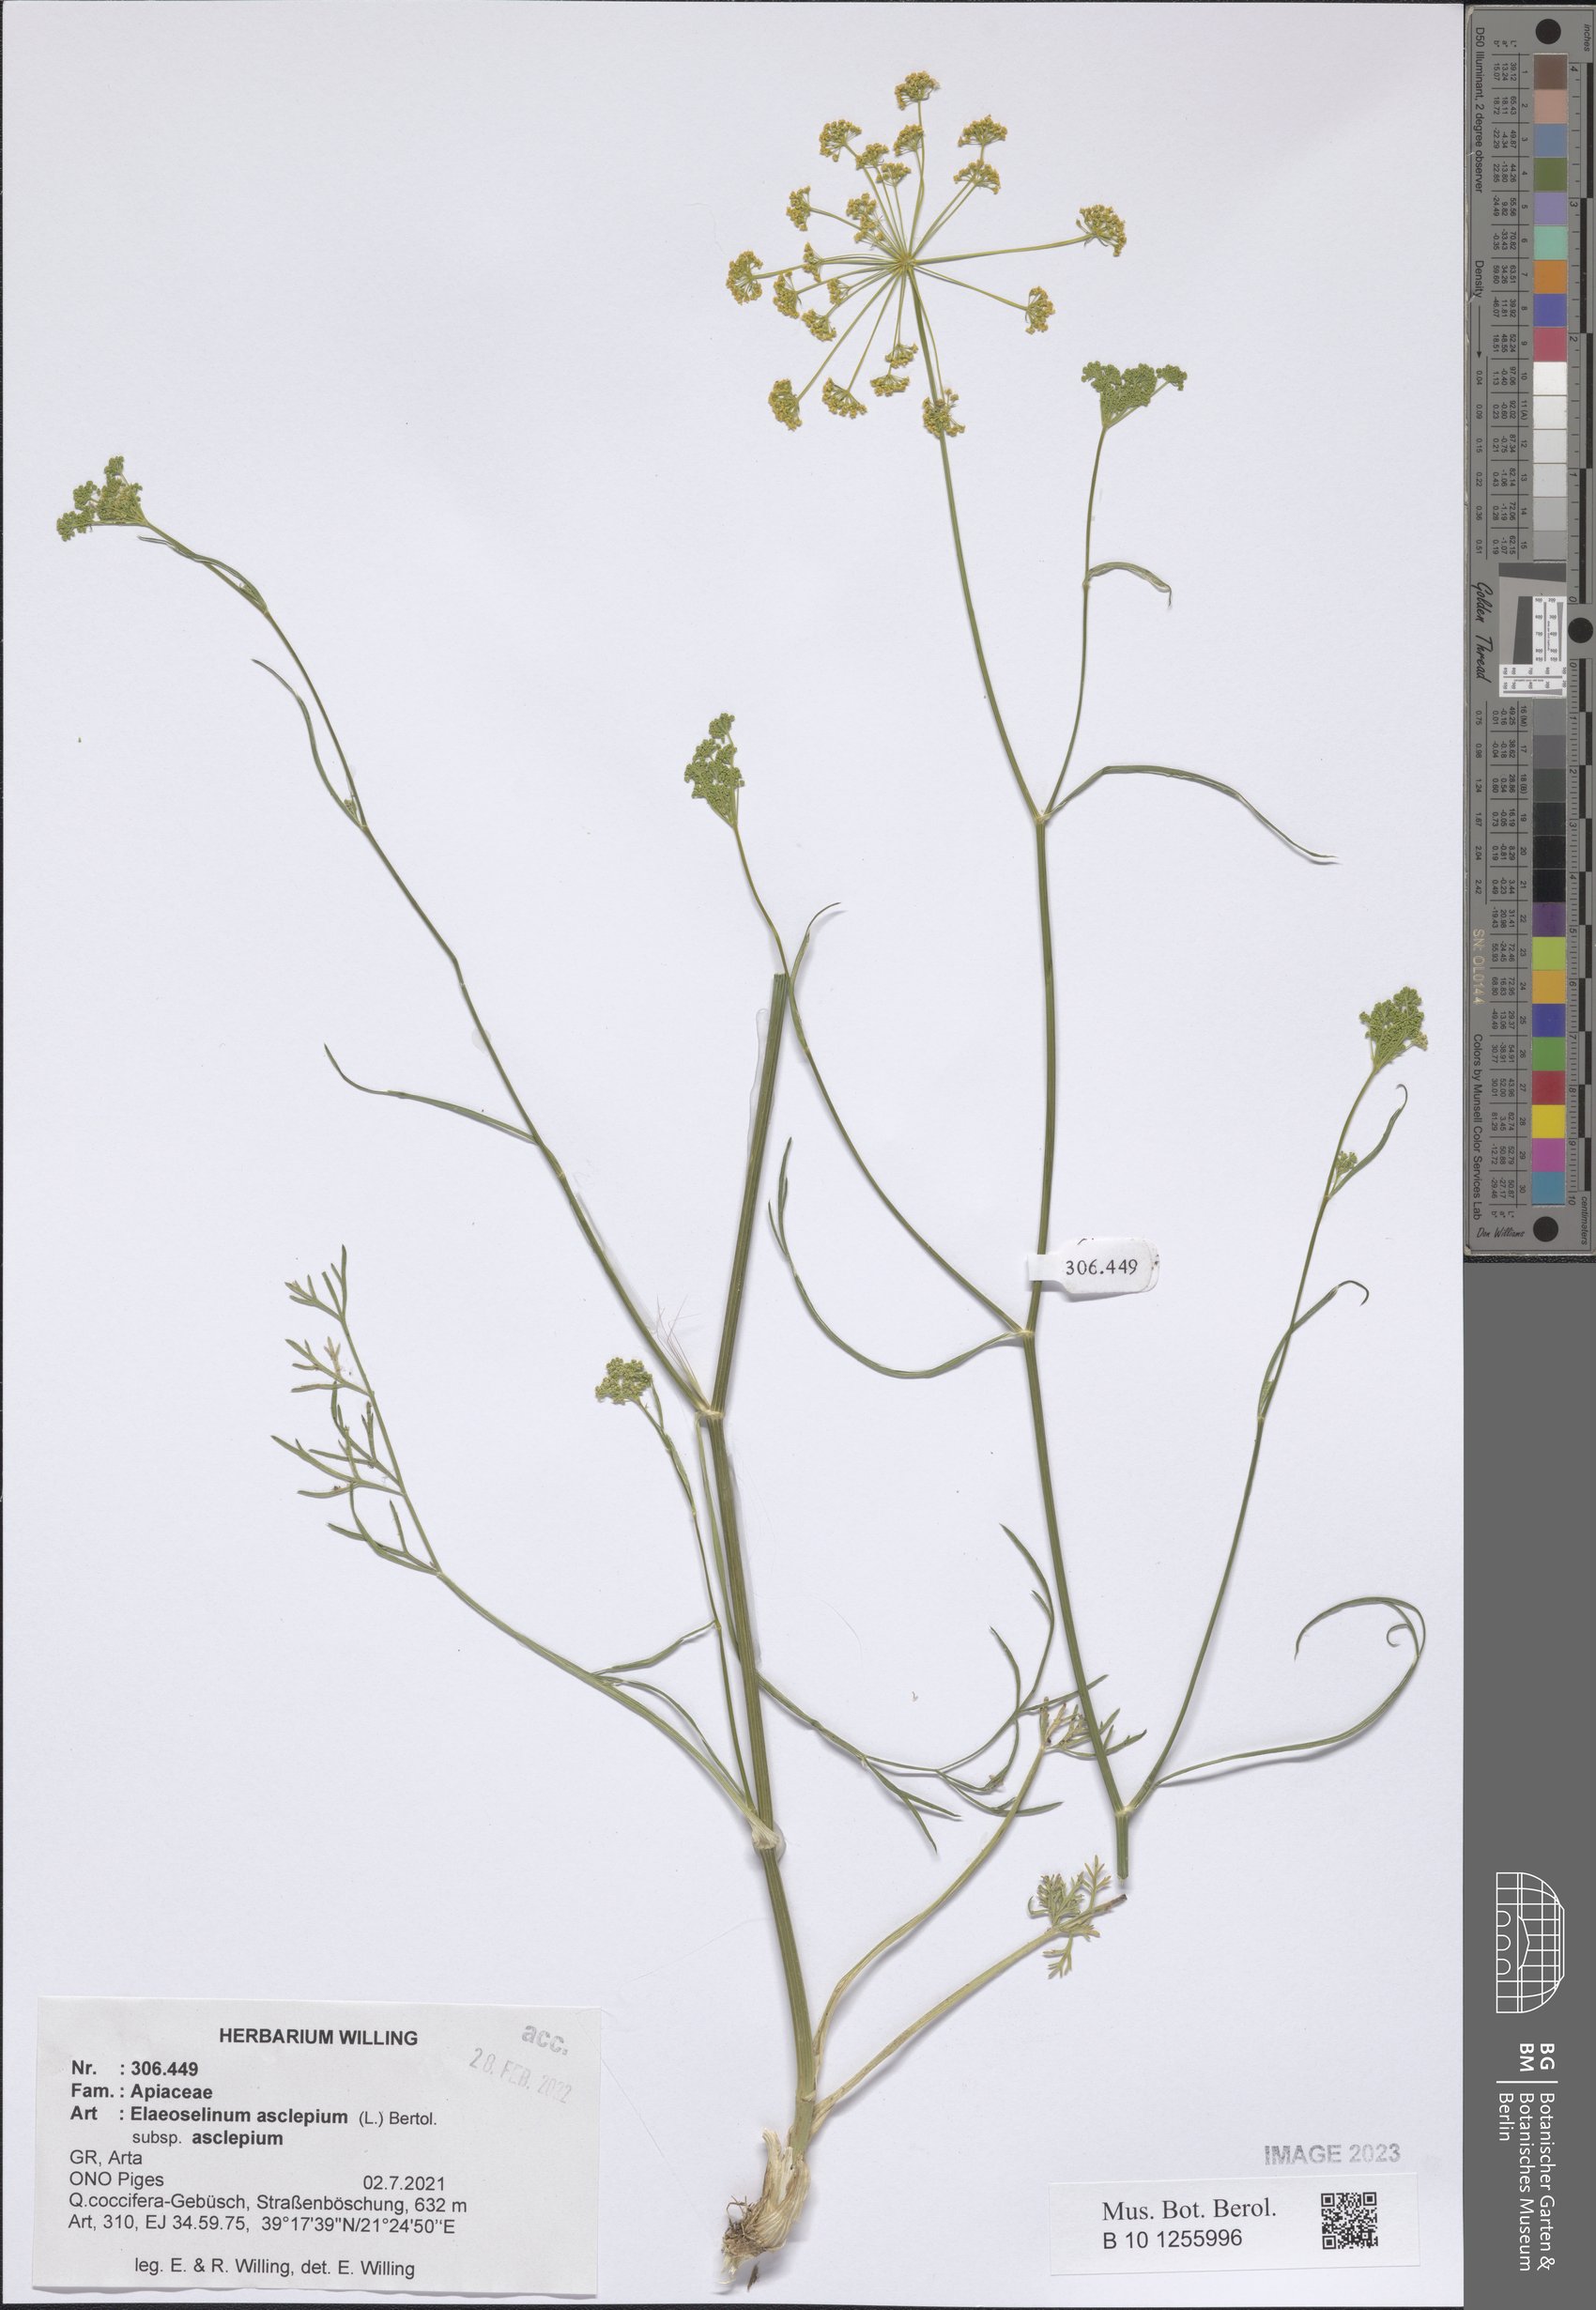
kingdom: Plantae
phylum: Tracheophyta
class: Magnoliopsida
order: Apiales
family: Apiaceae
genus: Thapsia
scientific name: Thapsia asclepium
